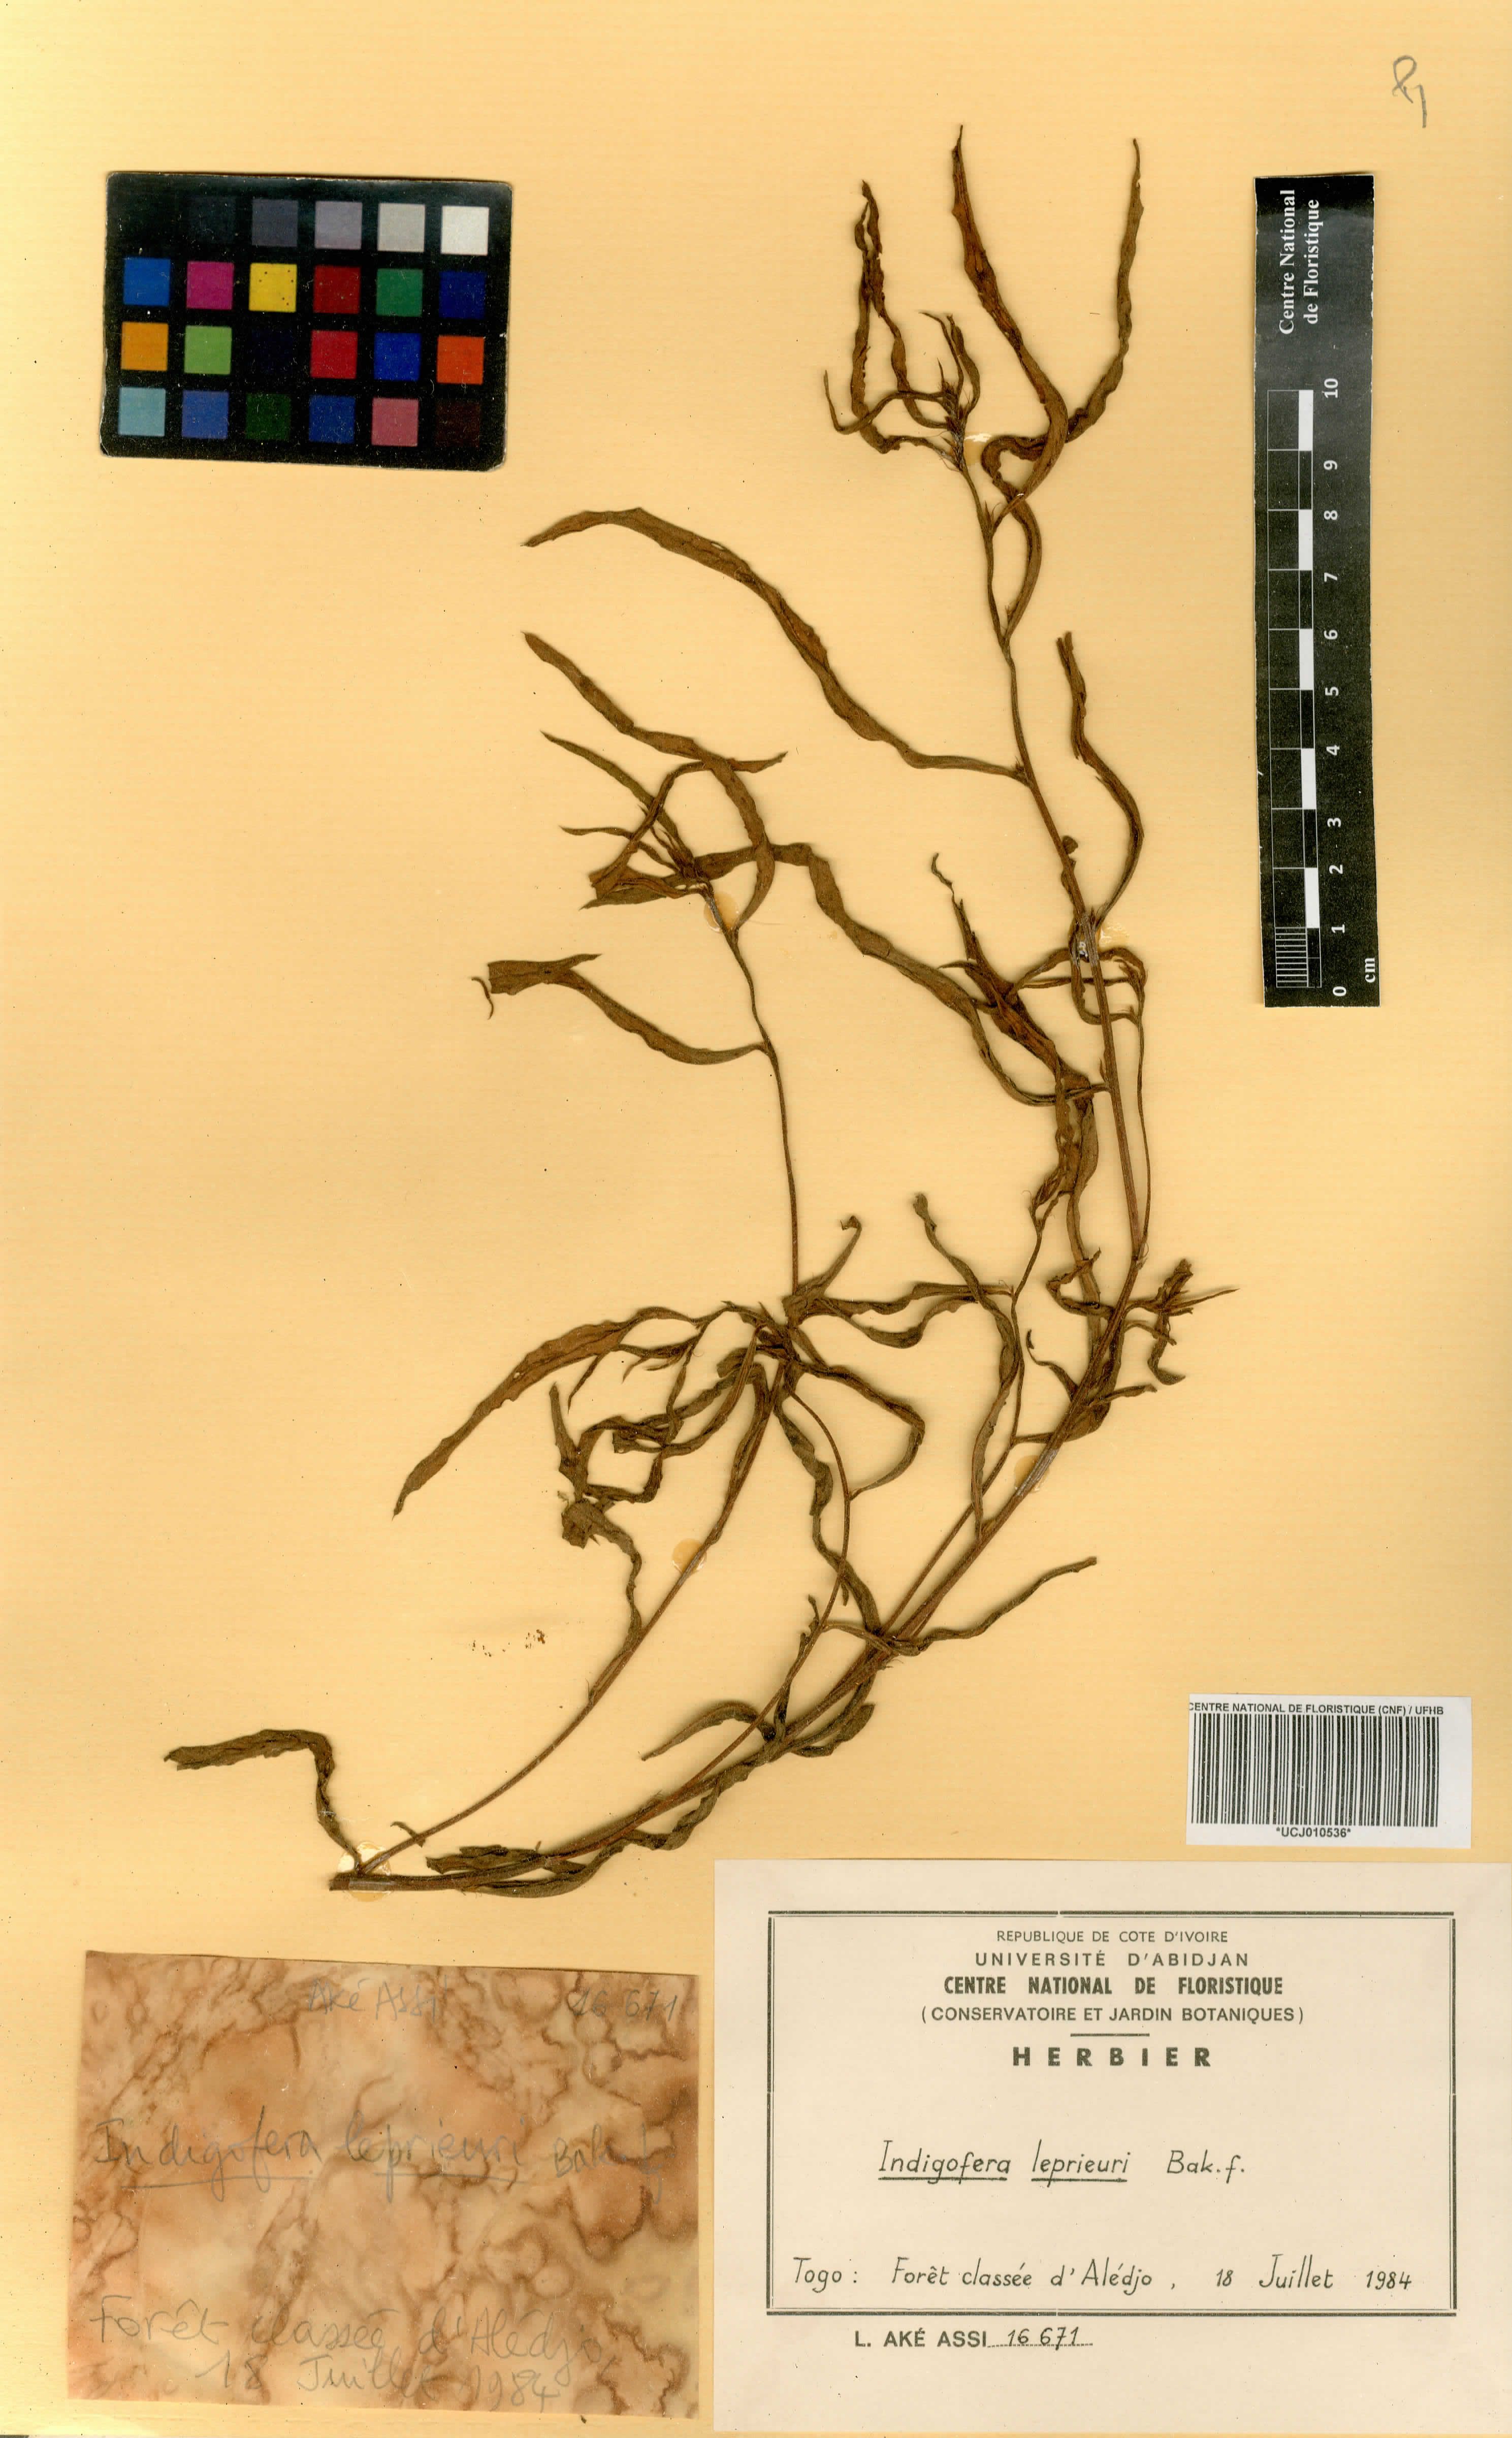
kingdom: Plantae
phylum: Tracheophyta
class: Magnoliopsida
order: Fabales
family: Fabaceae
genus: Indigofera
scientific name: Indigofera leprieurii
